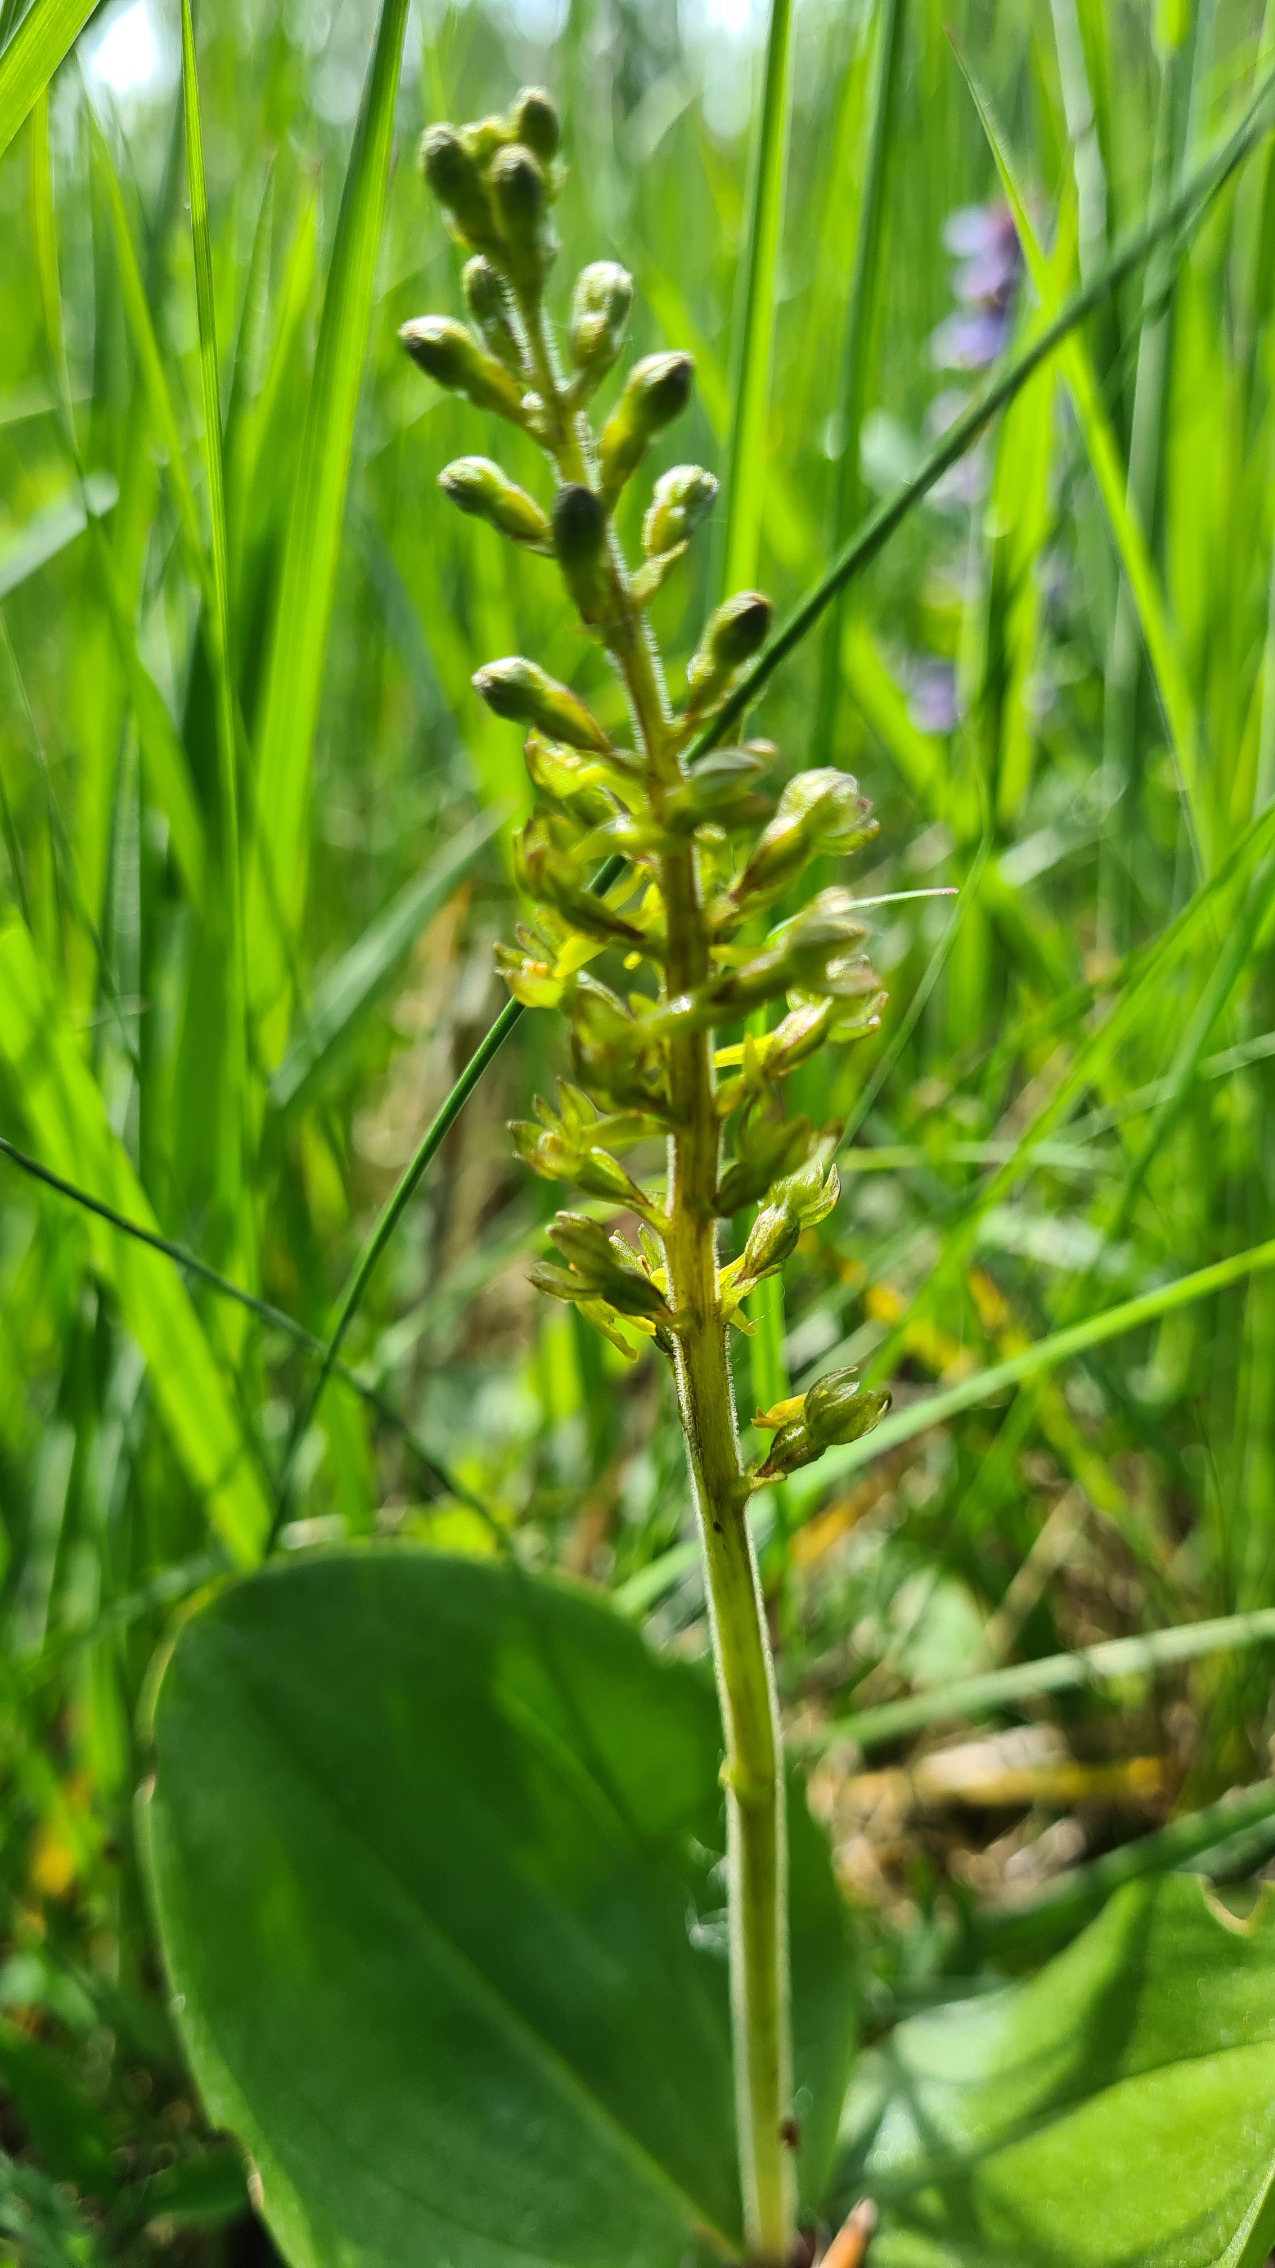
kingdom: Plantae
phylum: Tracheophyta
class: Liliopsida
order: Asparagales
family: Orchidaceae
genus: Neottia
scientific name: Neottia ovata
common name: Ægbladet fliglæbe
